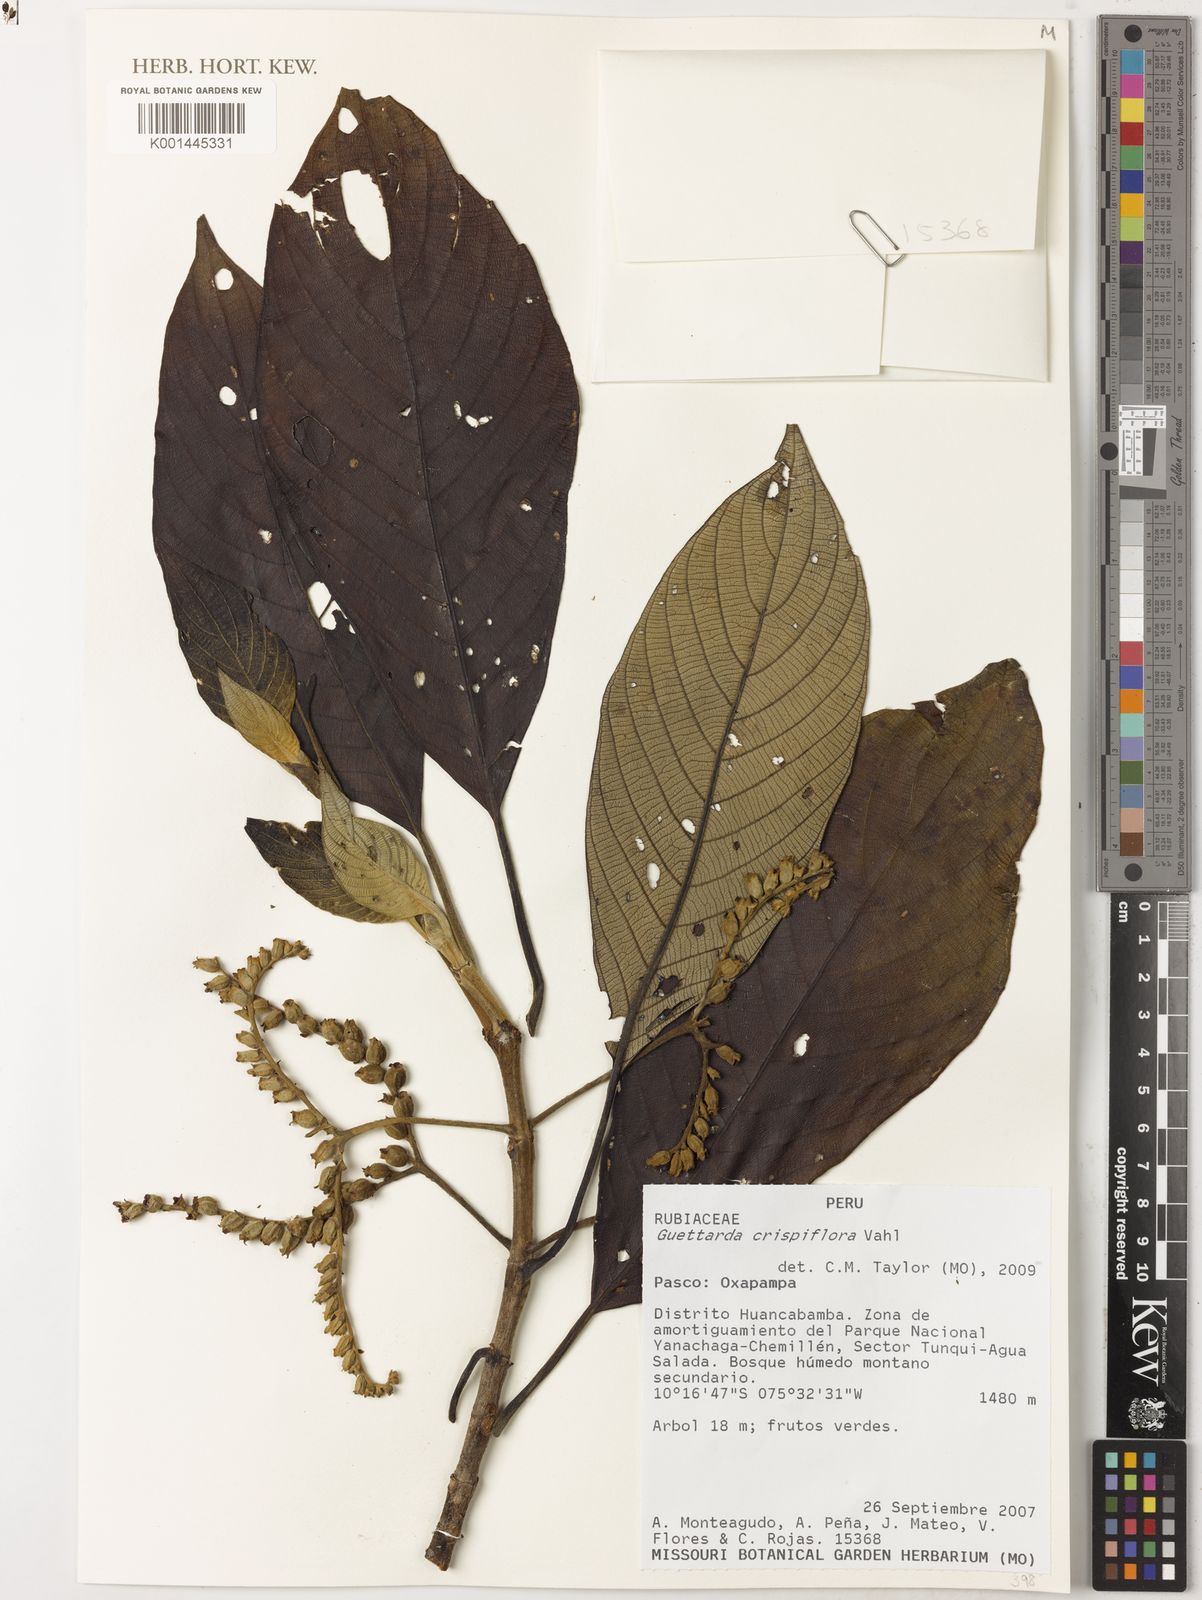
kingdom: Plantae
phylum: Tracheophyta
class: Magnoliopsida
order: Gentianales
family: Rubiaceae
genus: Tournefortiopsis
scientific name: Tournefortiopsis crispiflora
